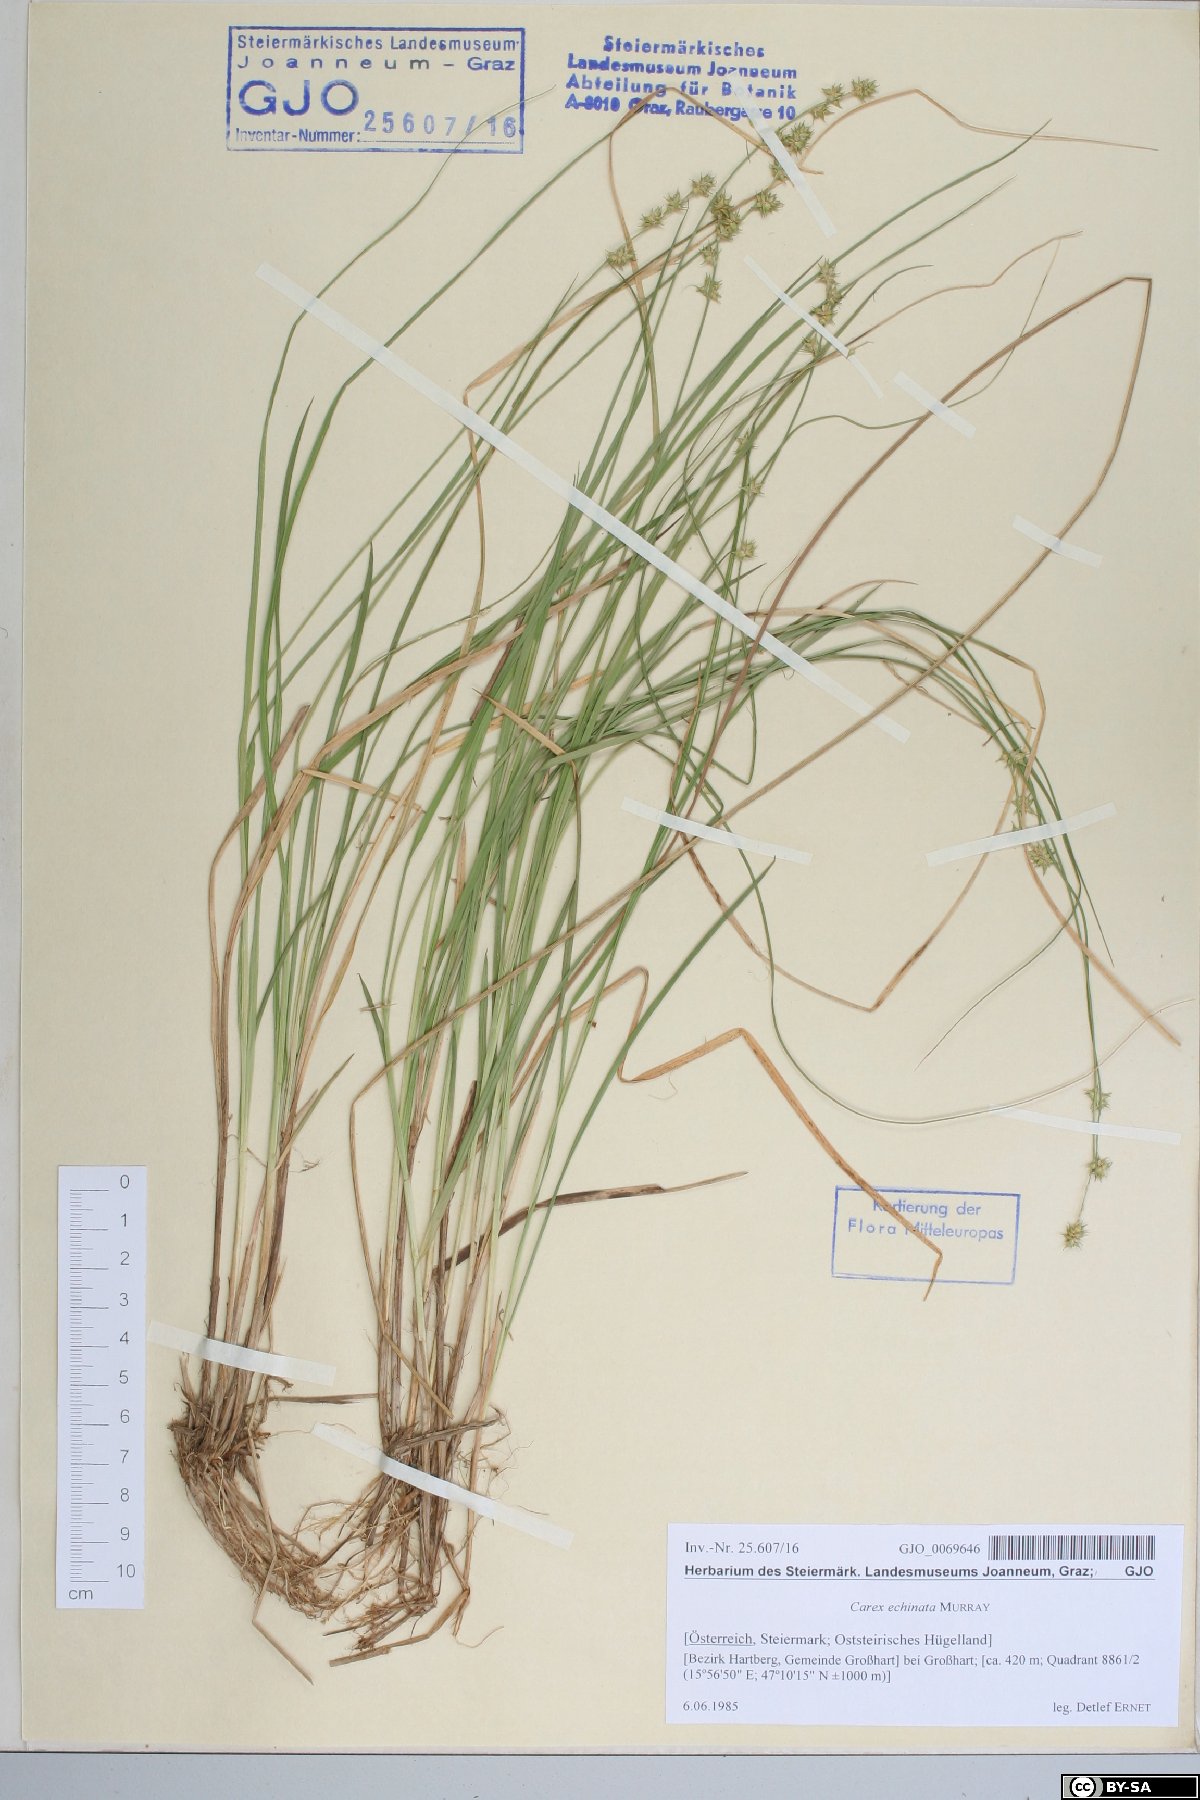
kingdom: Plantae
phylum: Tracheophyta
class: Liliopsida
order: Poales
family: Cyperaceae
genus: Carex
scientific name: Carex echinata
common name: Star sedge
